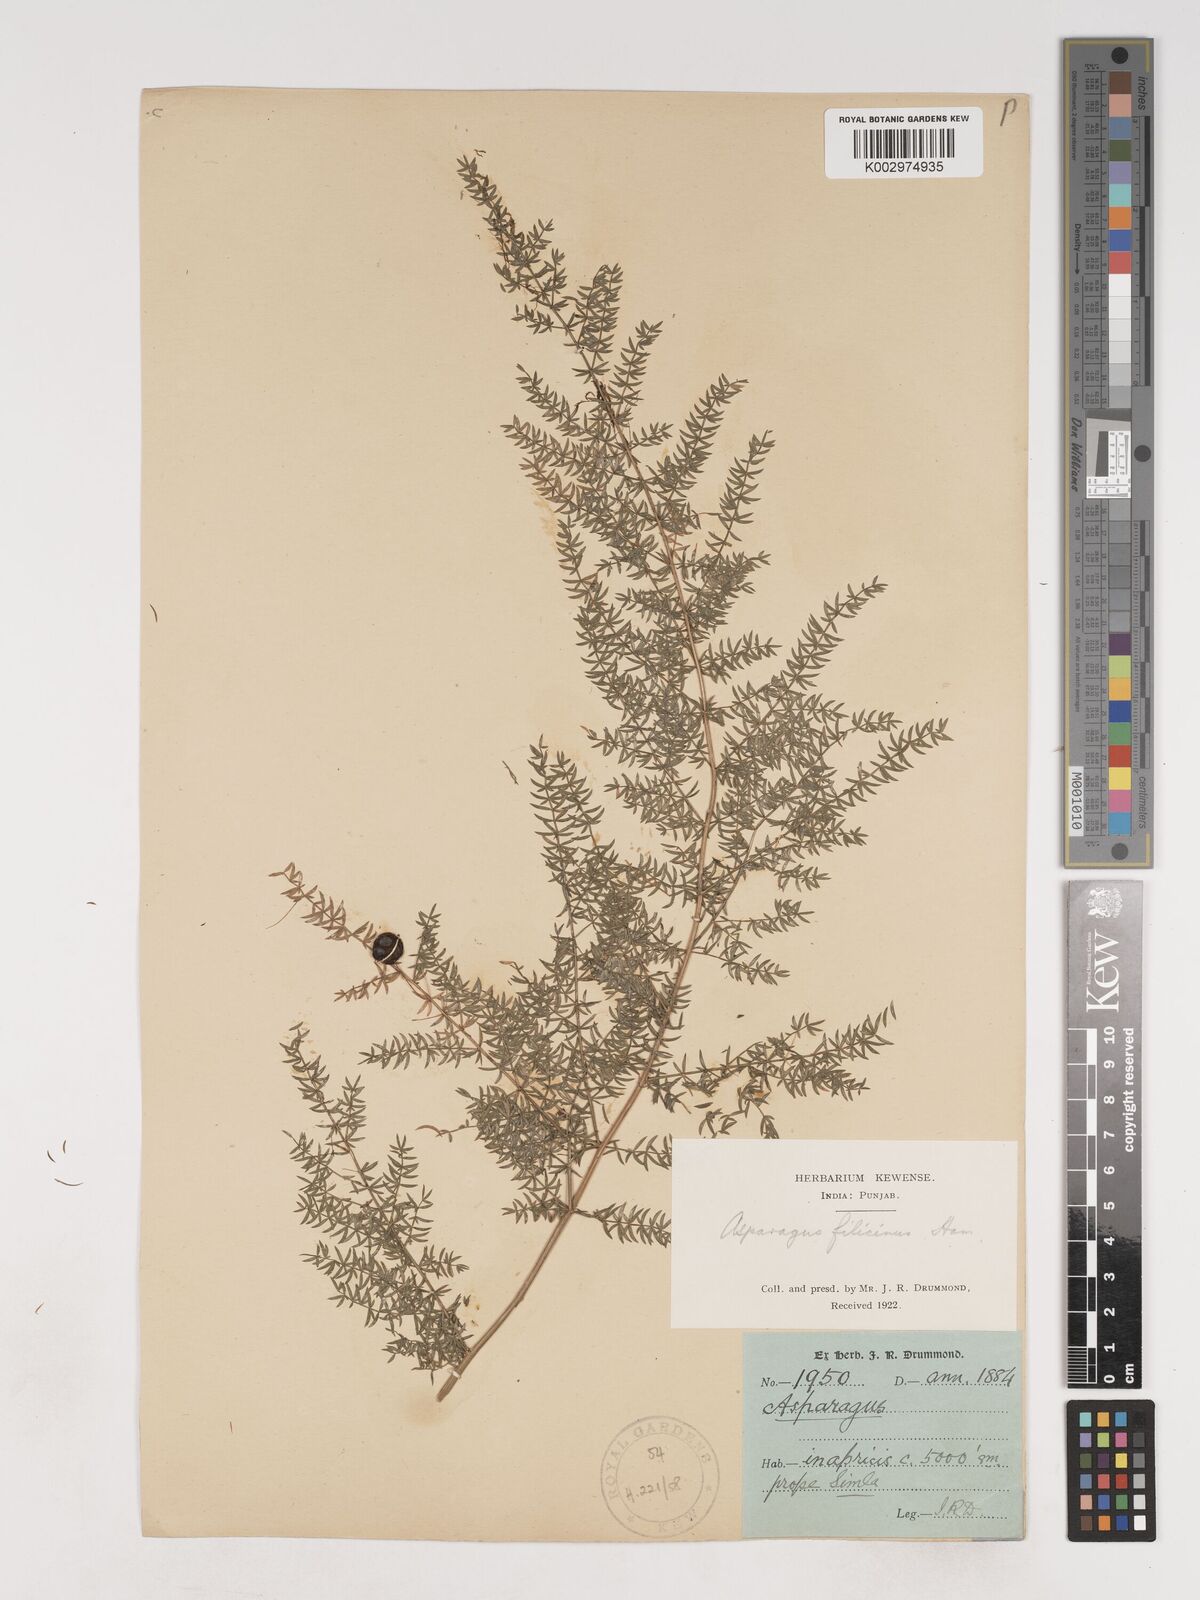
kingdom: Plantae
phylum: Tracheophyta
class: Liliopsida
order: Asparagales
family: Asparagaceae
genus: Asparagus
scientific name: Asparagus filicinus
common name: Fern asparagus
